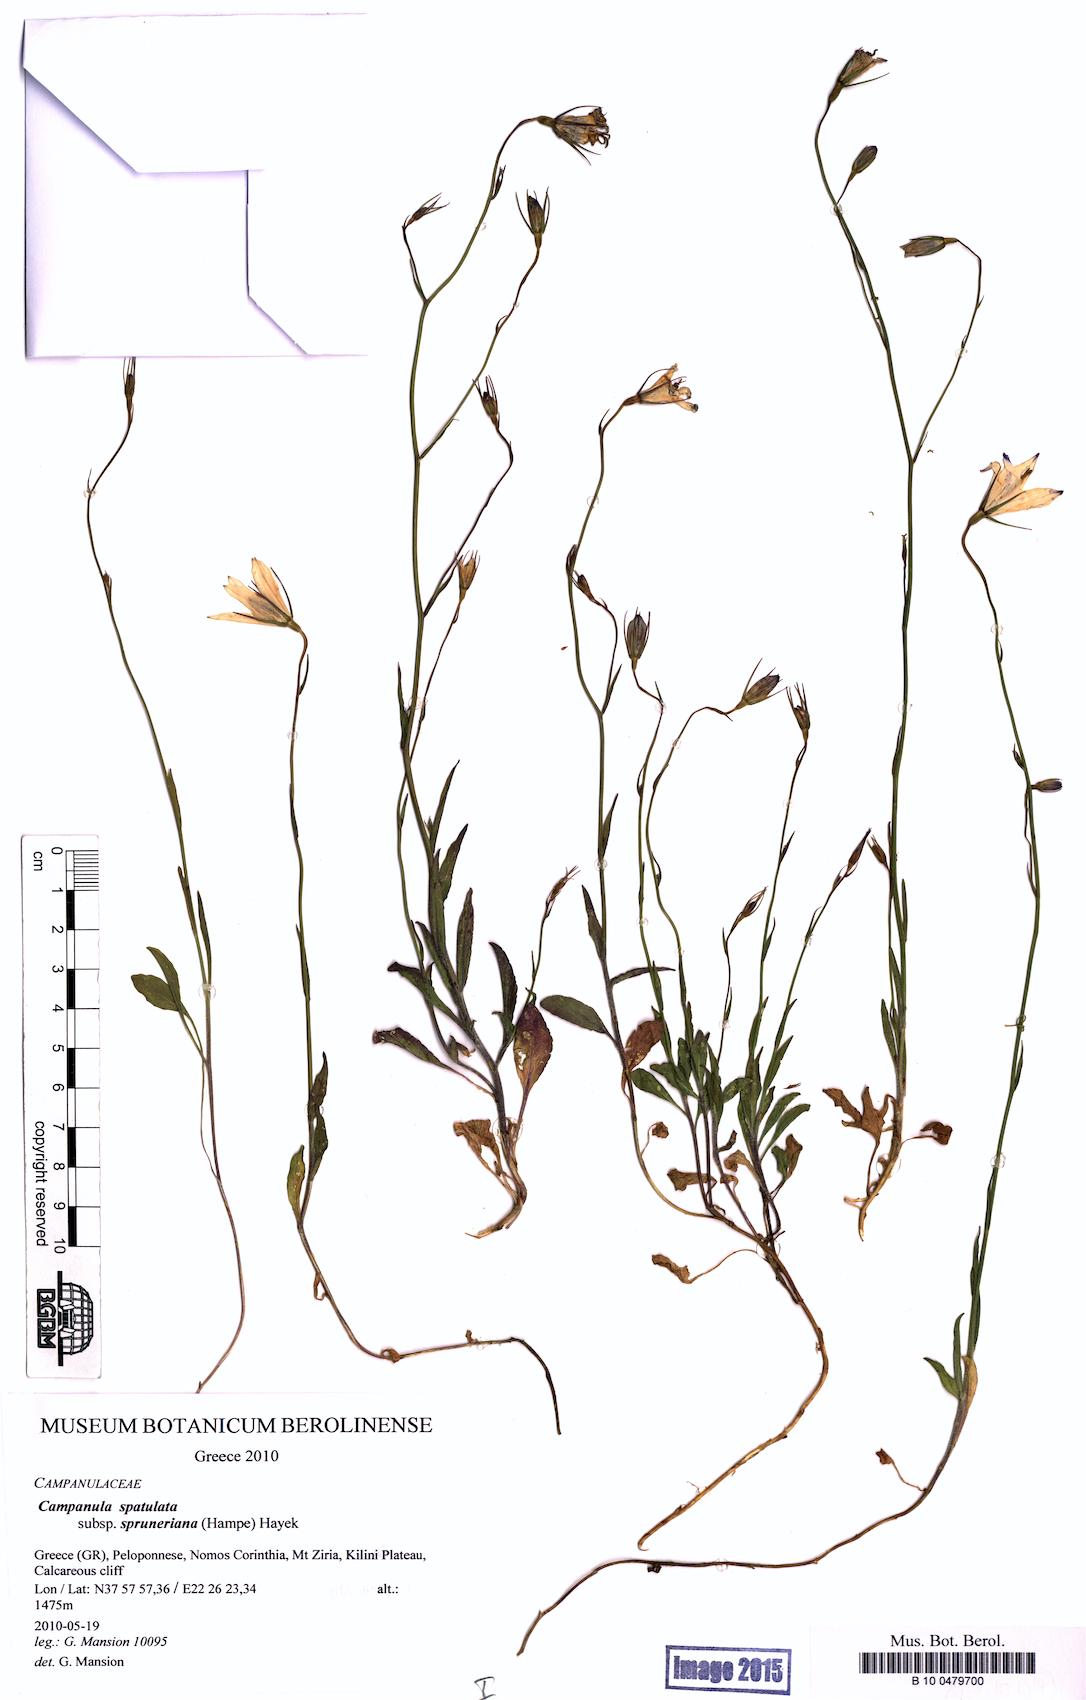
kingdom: Plantae
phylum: Tracheophyta
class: Magnoliopsida
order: Asterales
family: Campanulaceae
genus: Campanula
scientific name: Campanula spatulata
